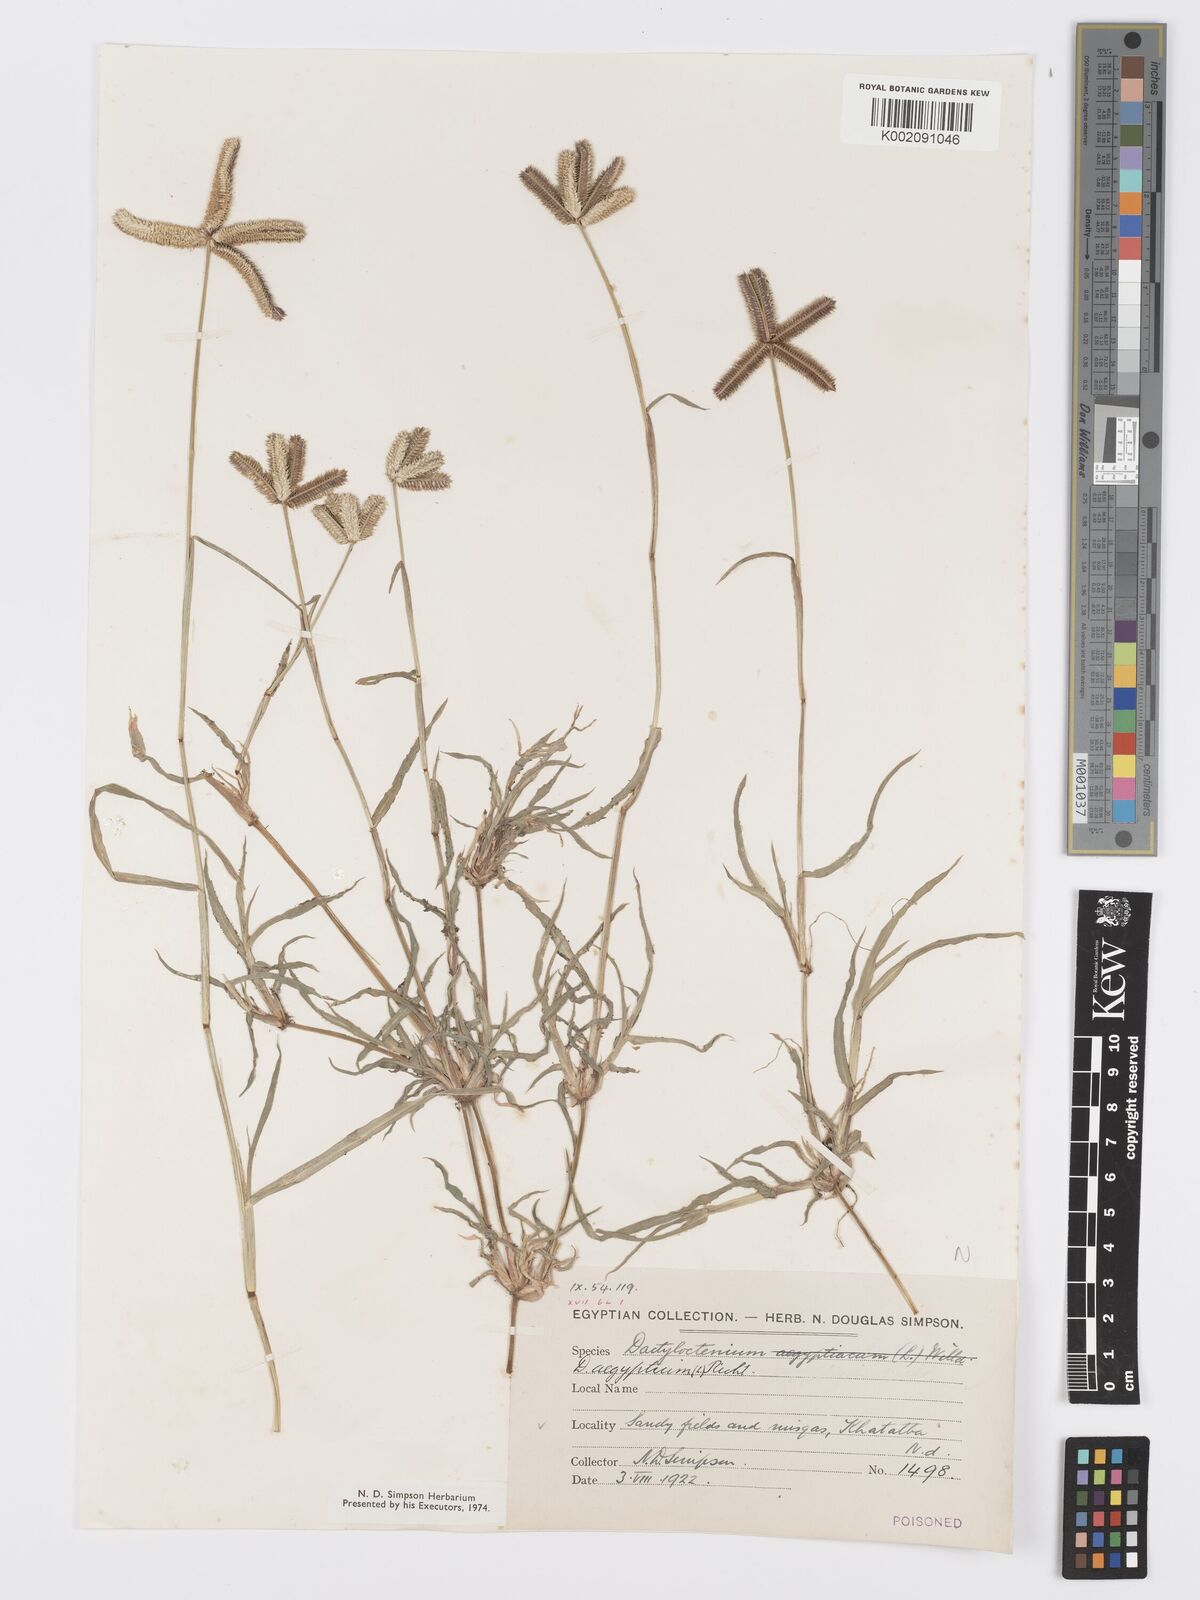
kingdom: Plantae
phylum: Tracheophyta
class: Liliopsida
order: Poales
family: Poaceae
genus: Dactyloctenium
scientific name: Dactyloctenium aegyptium
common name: Egyptian grass
